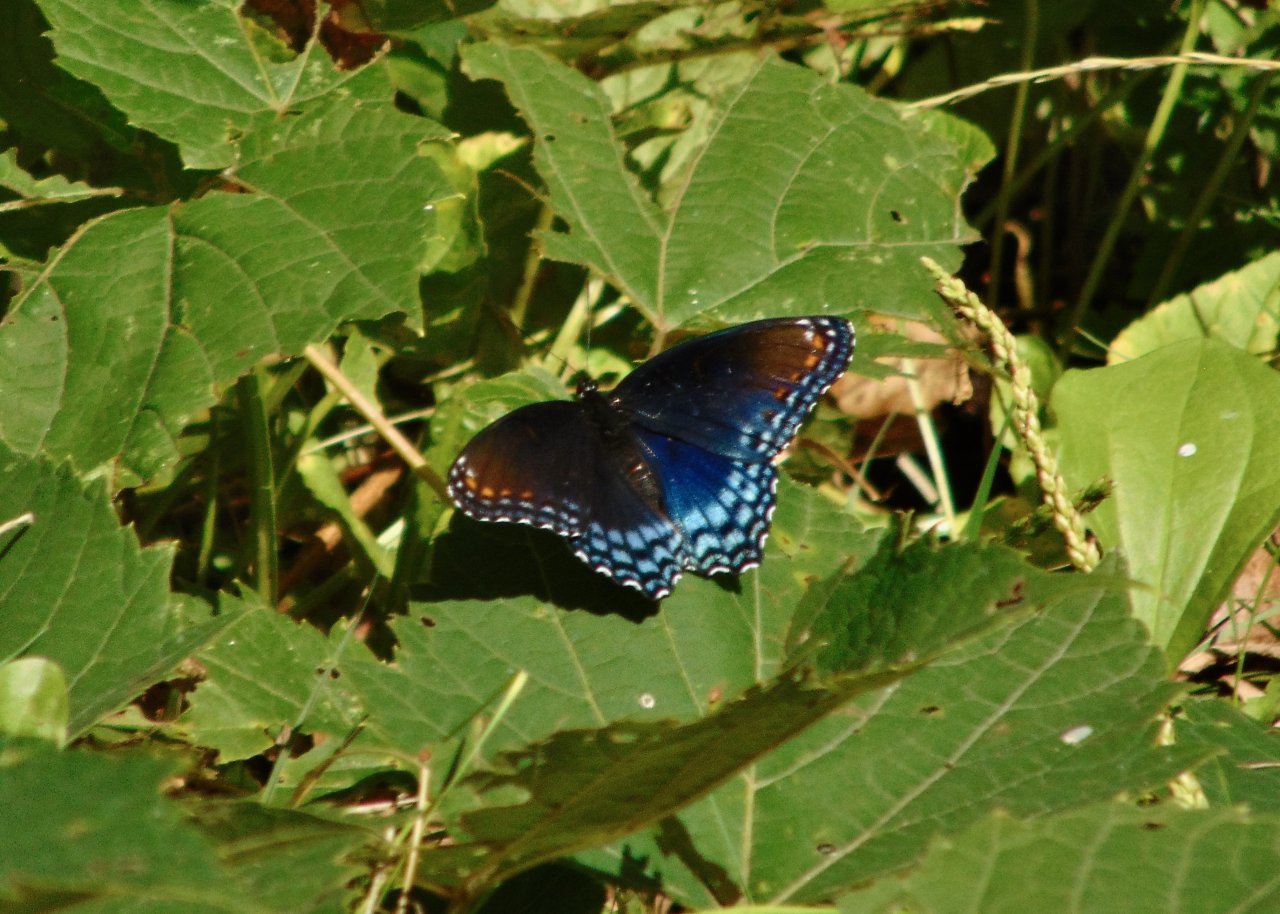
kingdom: Animalia
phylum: Arthropoda
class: Insecta
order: Lepidoptera
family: Nymphalidae
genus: Limenitis
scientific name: Limenitis astyanax
